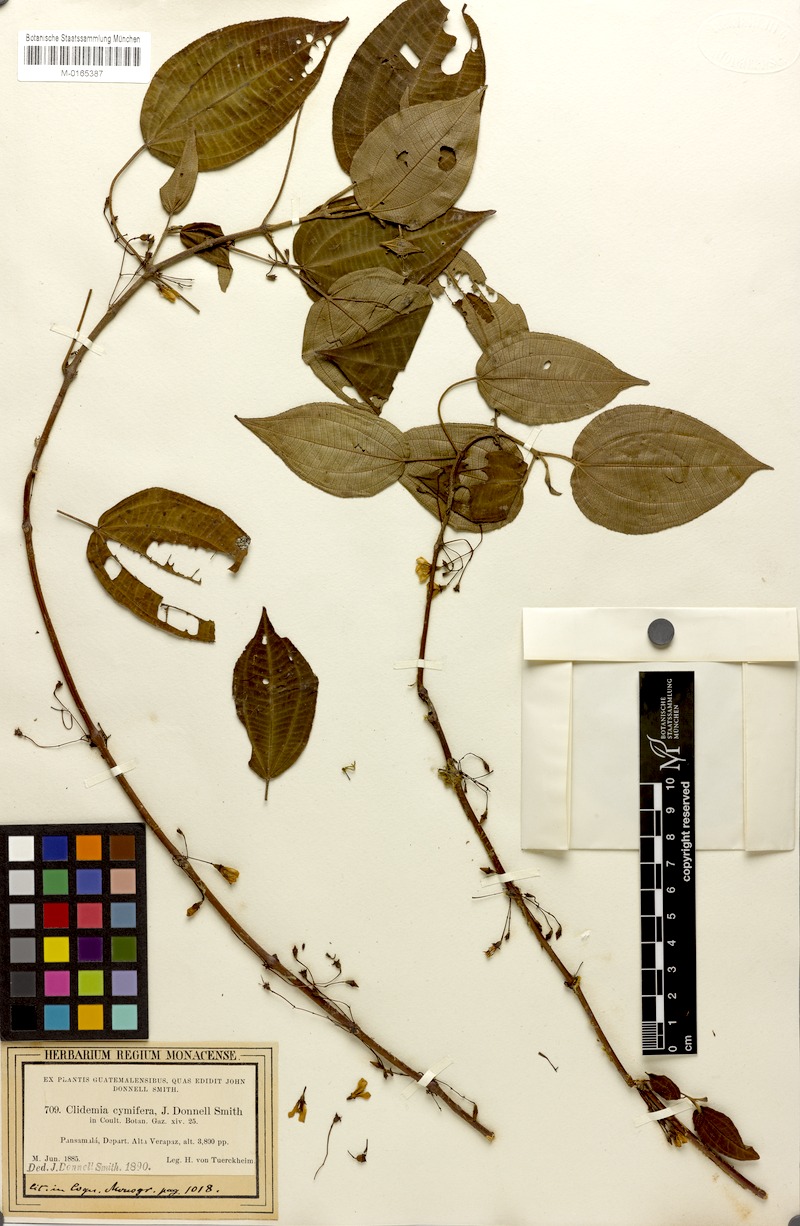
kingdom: Plantae
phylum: Tracheophyta
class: Magnoliopsida
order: Myrtales
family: Melastomataceae
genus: Miconia
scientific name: Miconia cymifera
